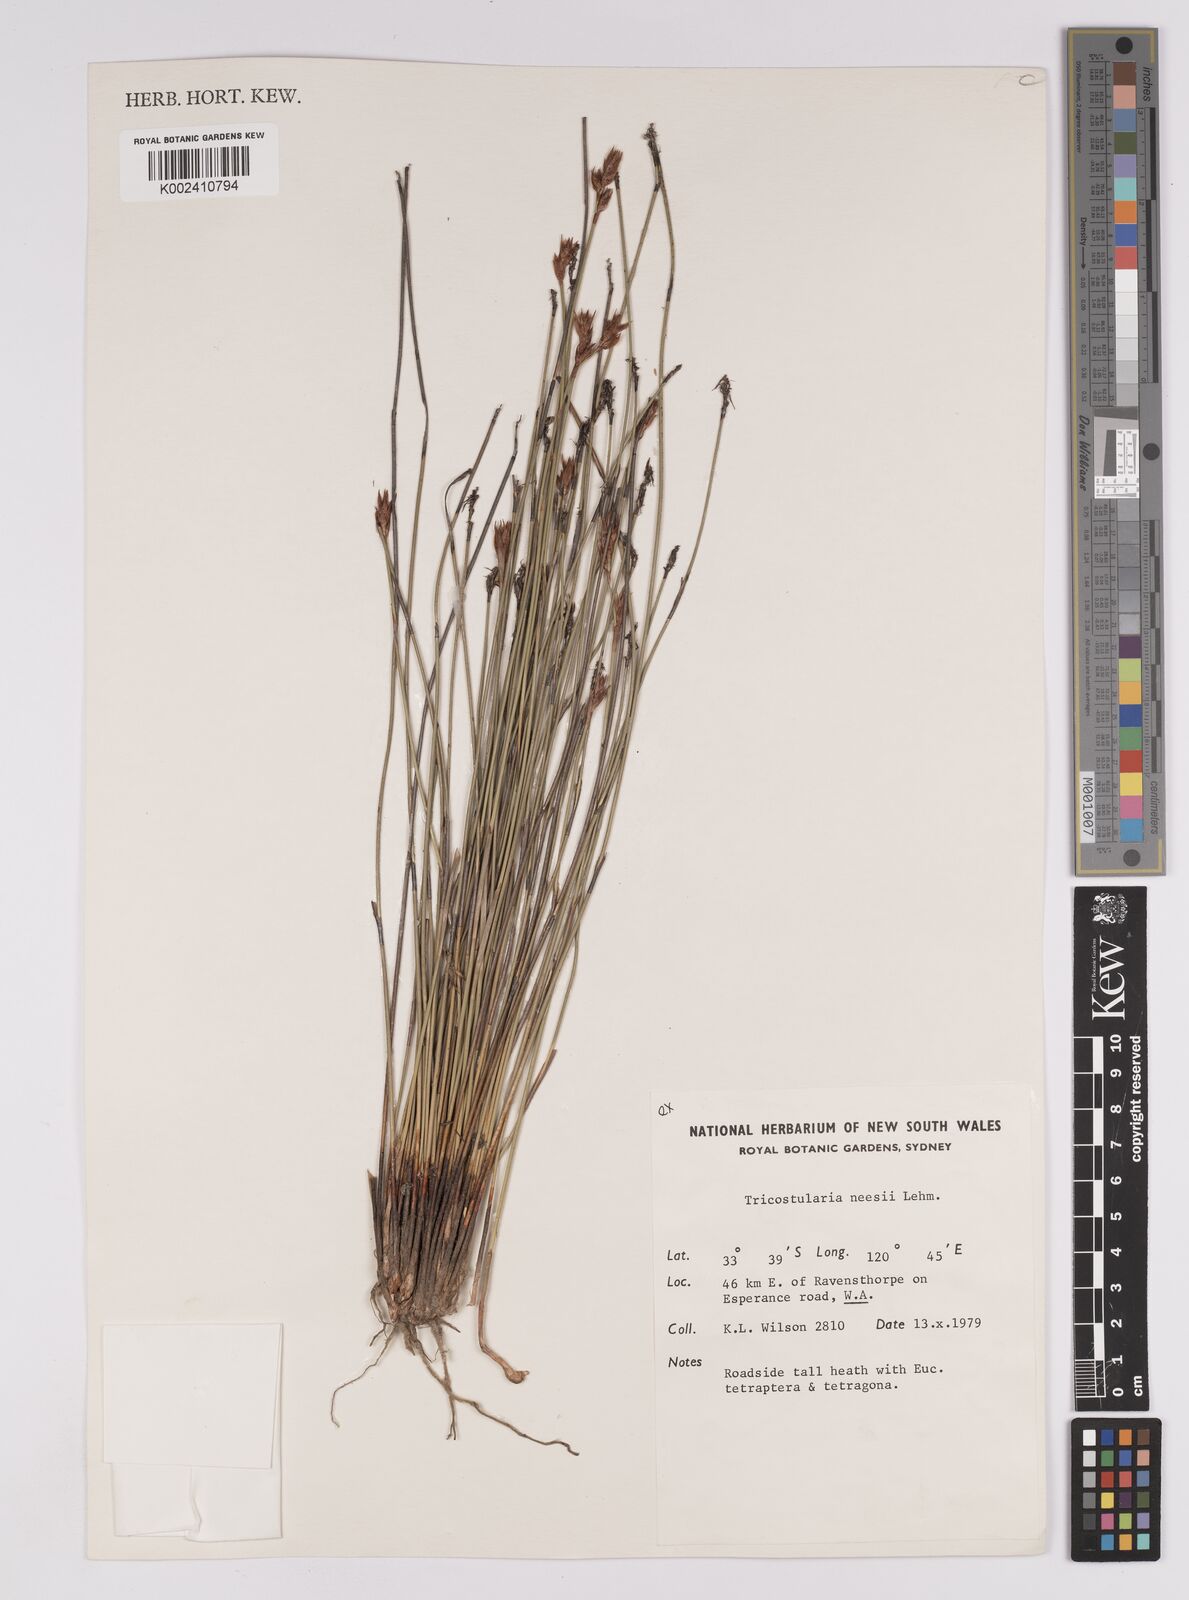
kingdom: Plantae
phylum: Tracheophyta
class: Liliopsida
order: Poales
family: Cyperaceae
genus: Tricostularia
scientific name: Tricostularia neesii
